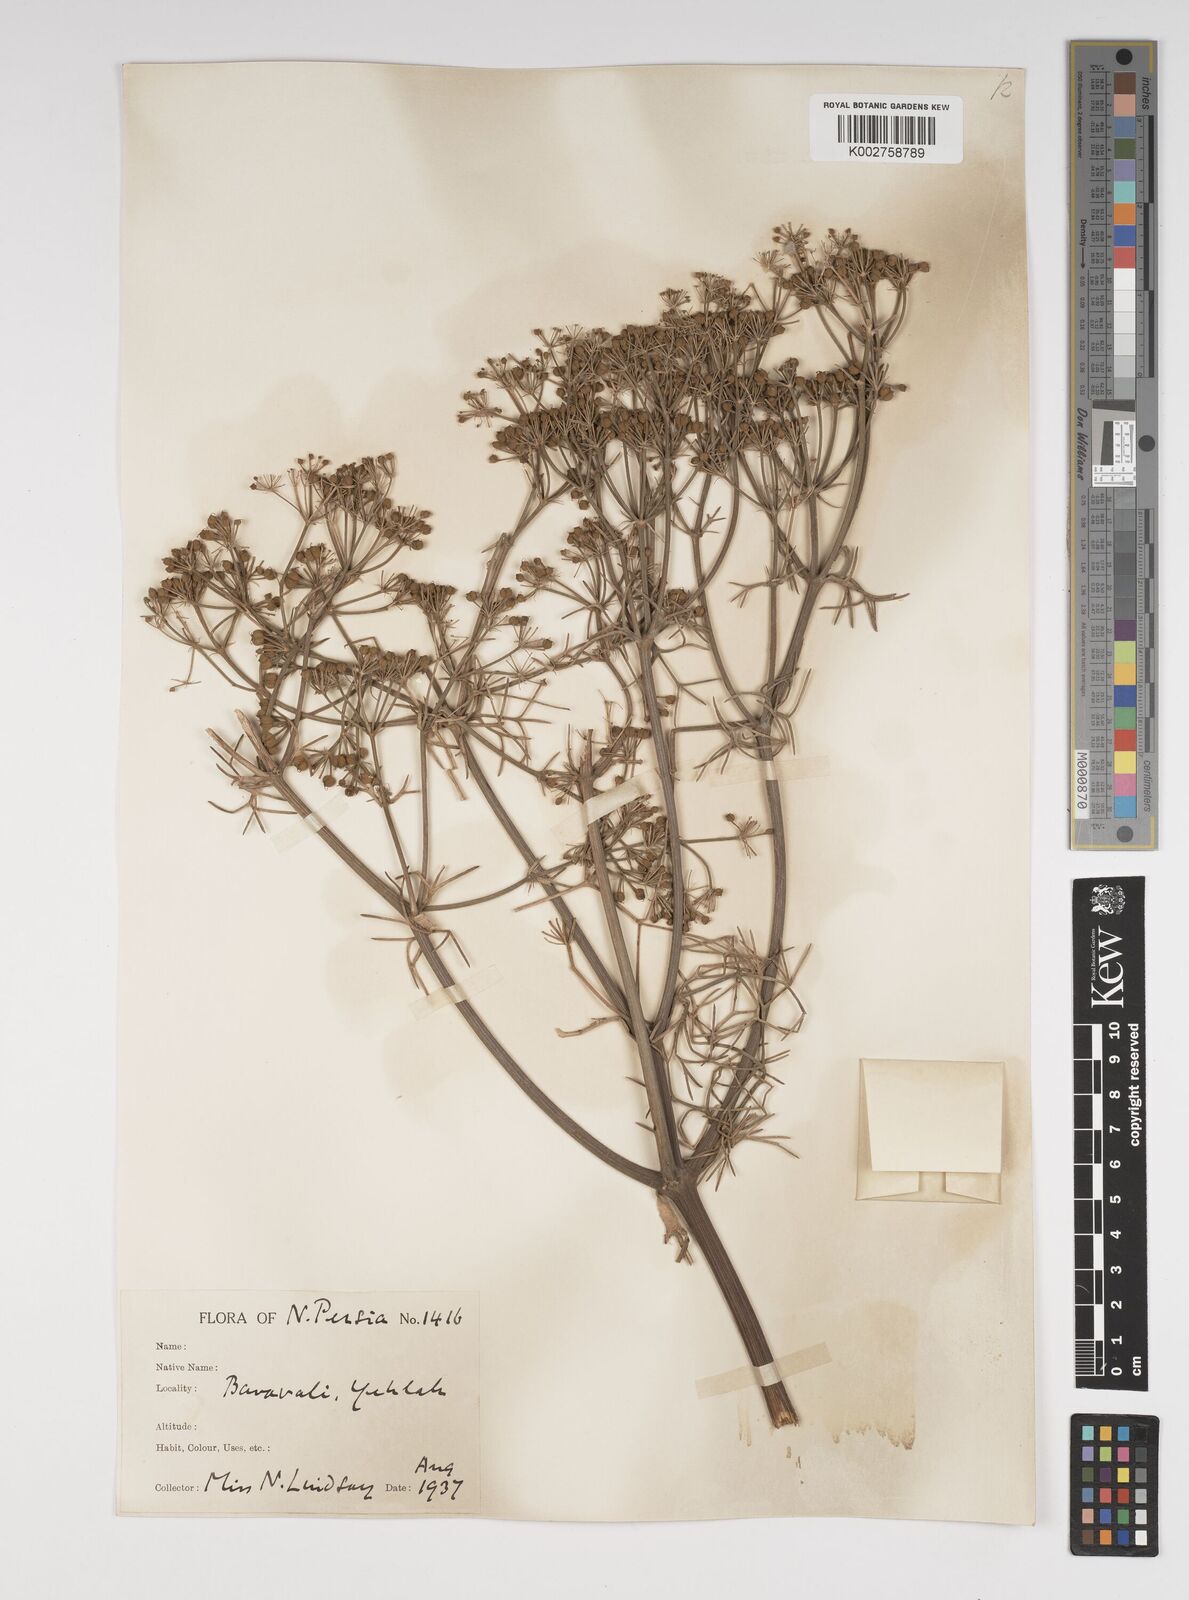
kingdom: Plantae
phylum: Tracheophyta
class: Magnoliopsida
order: Apiales
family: Apiaceae
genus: Bilacunaria
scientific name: Bilacunaria microcarpa
